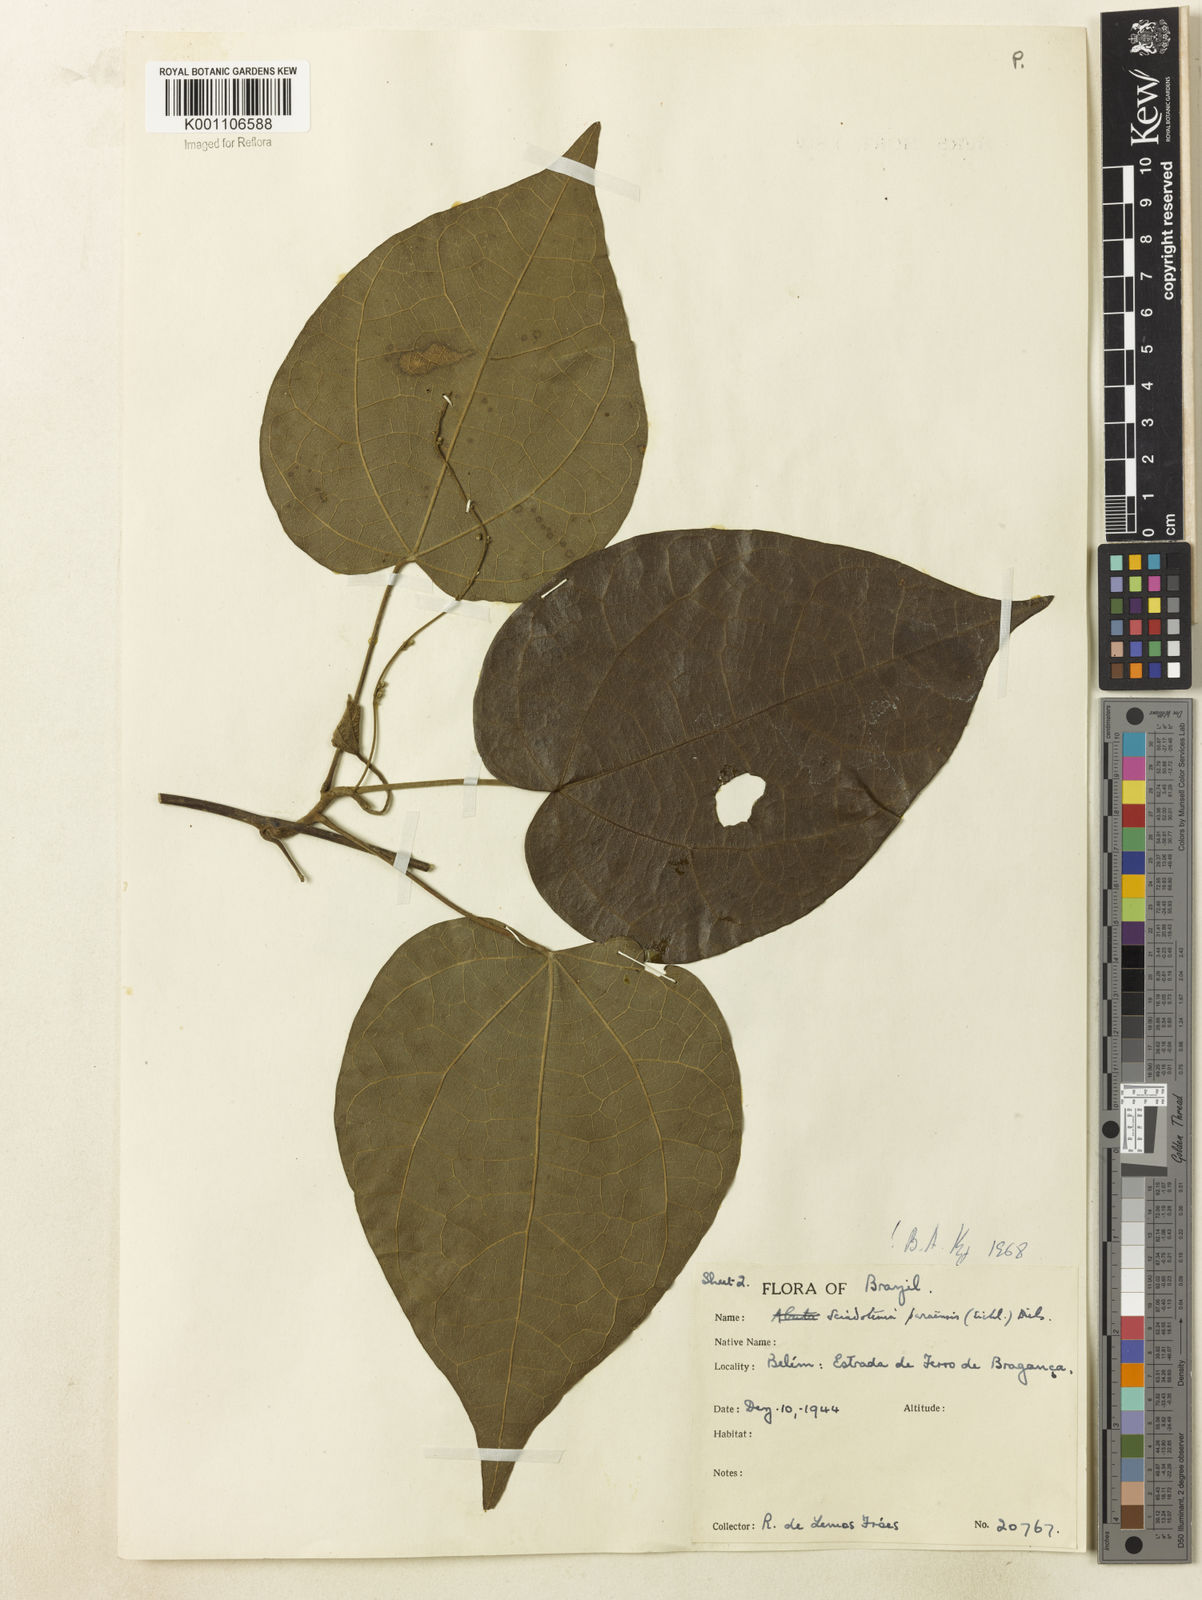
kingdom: Plantae
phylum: Tracheophyta
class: Magnoliopsida
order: Ranunculales
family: Menispermaceae
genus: Sciadotenia
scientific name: Sciadotenia paraensis
